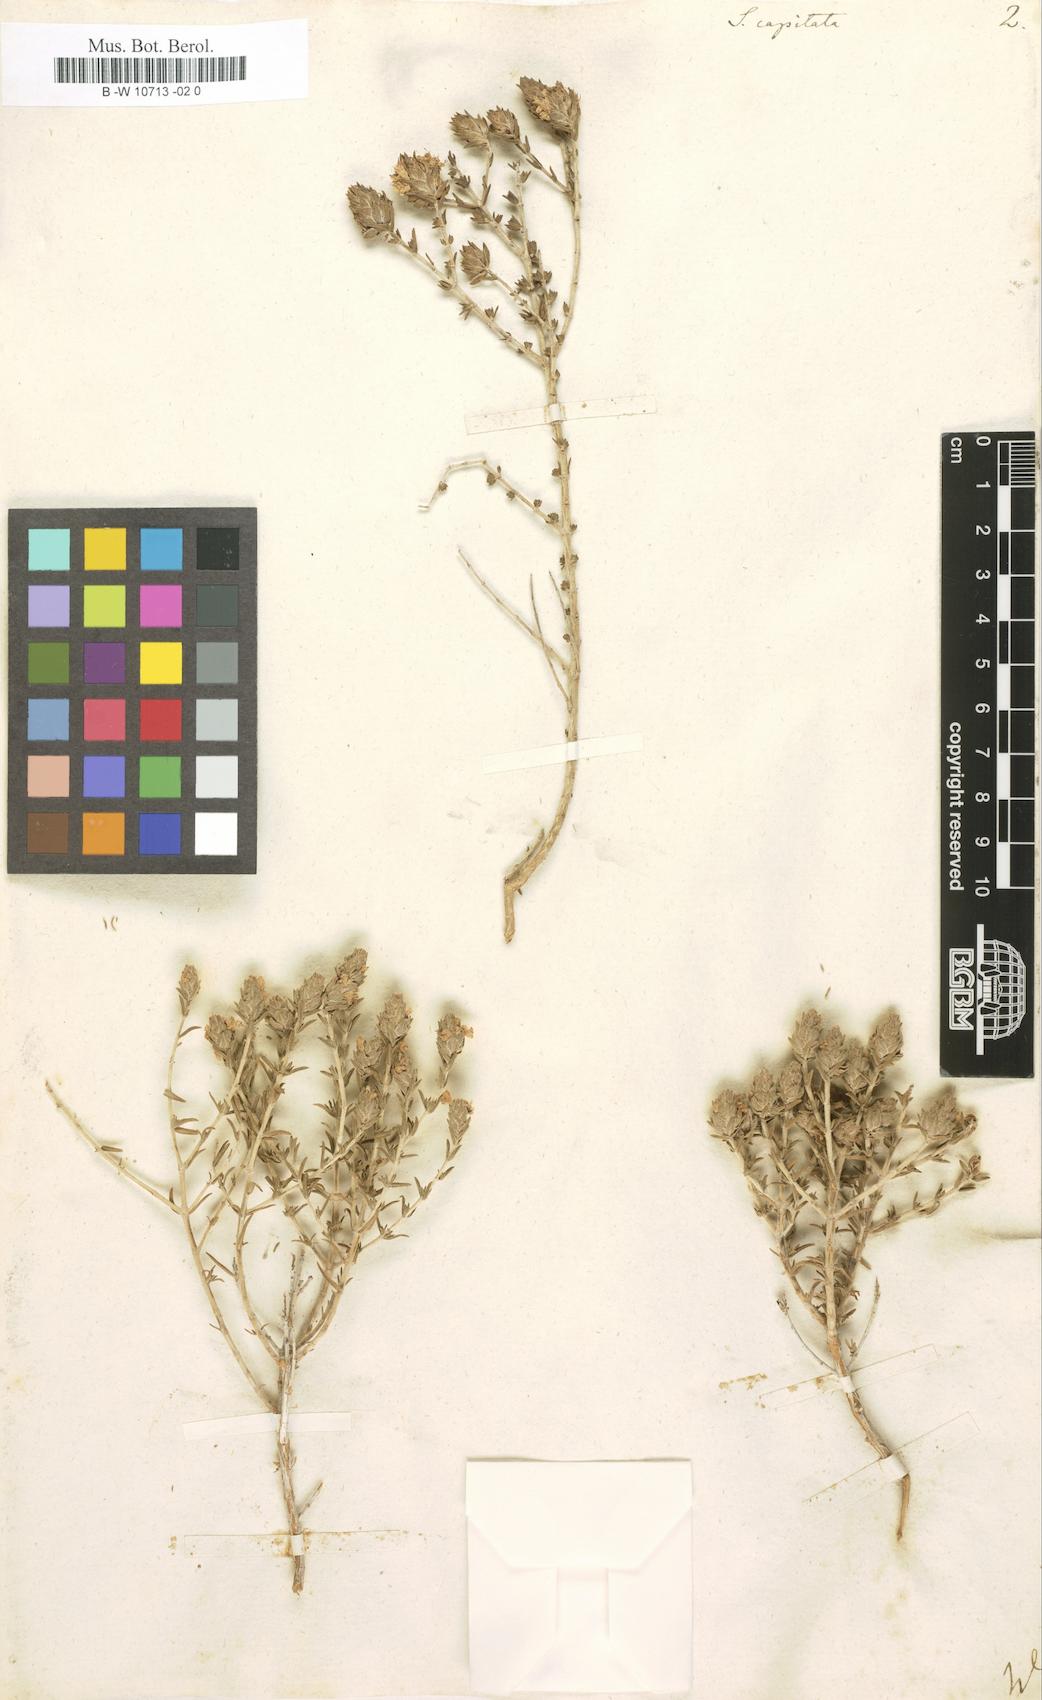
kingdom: Plantae
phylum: Tracheophyta
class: Magnoliopsida
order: Lamiales
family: Lamiaceae
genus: Thymbra
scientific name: Thymbra capitata
